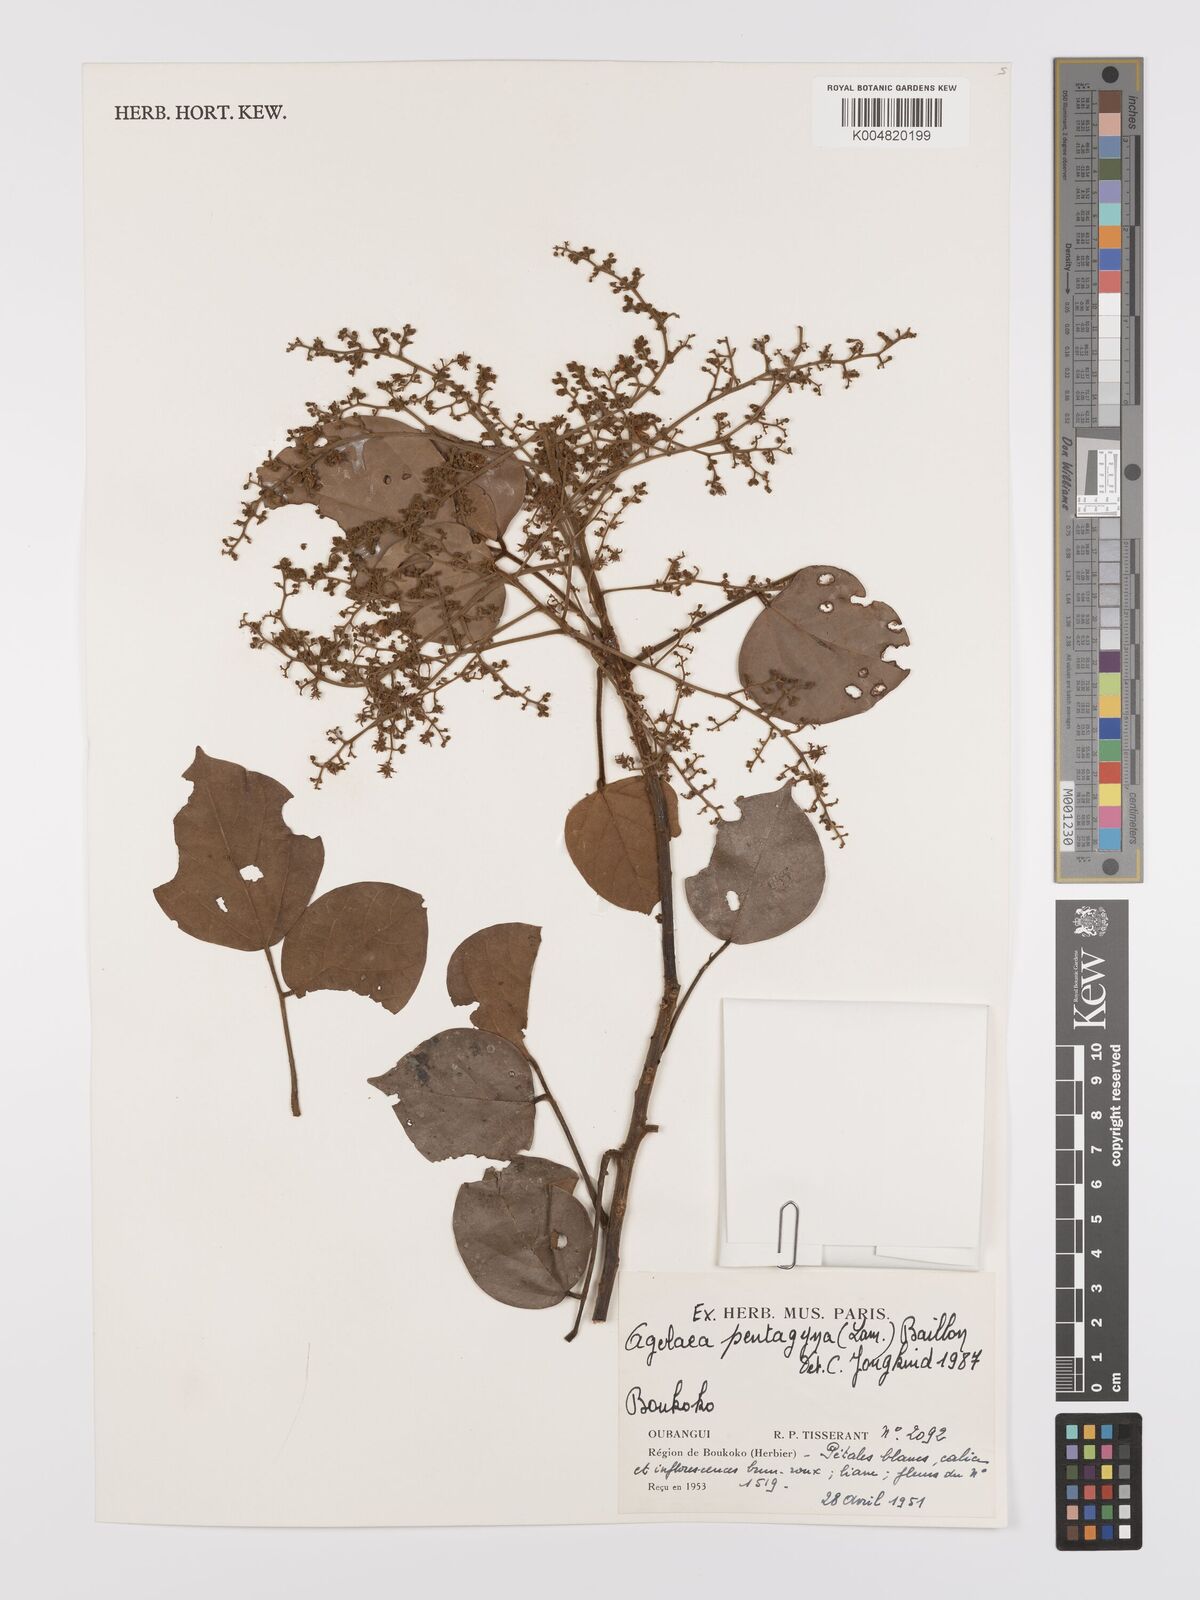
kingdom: Plantae
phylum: Tracheophyta
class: Magnoliopsida
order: Oxalidales
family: Connaraceae
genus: Agelaea
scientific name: Agelaea pentagyna
